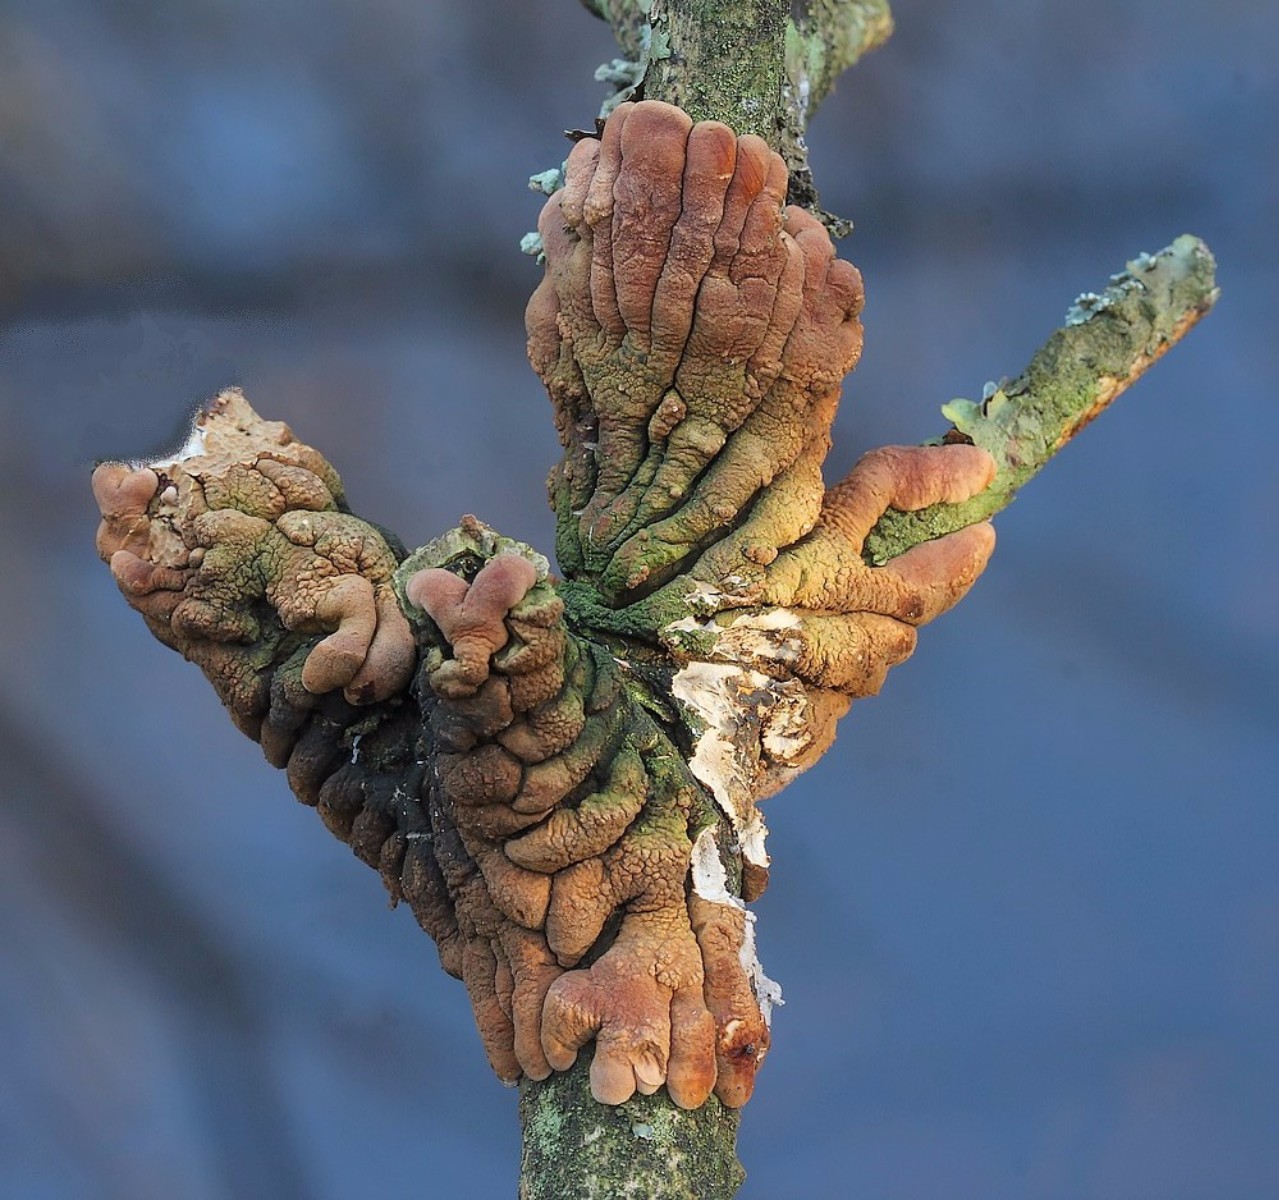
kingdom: Fungi
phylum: Ascomycota
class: Sordariomycetes
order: Hypocreales
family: Hypocreaceae
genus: Hypocreopsis
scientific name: Hypocreopsis lichenoides
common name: pilfinger
